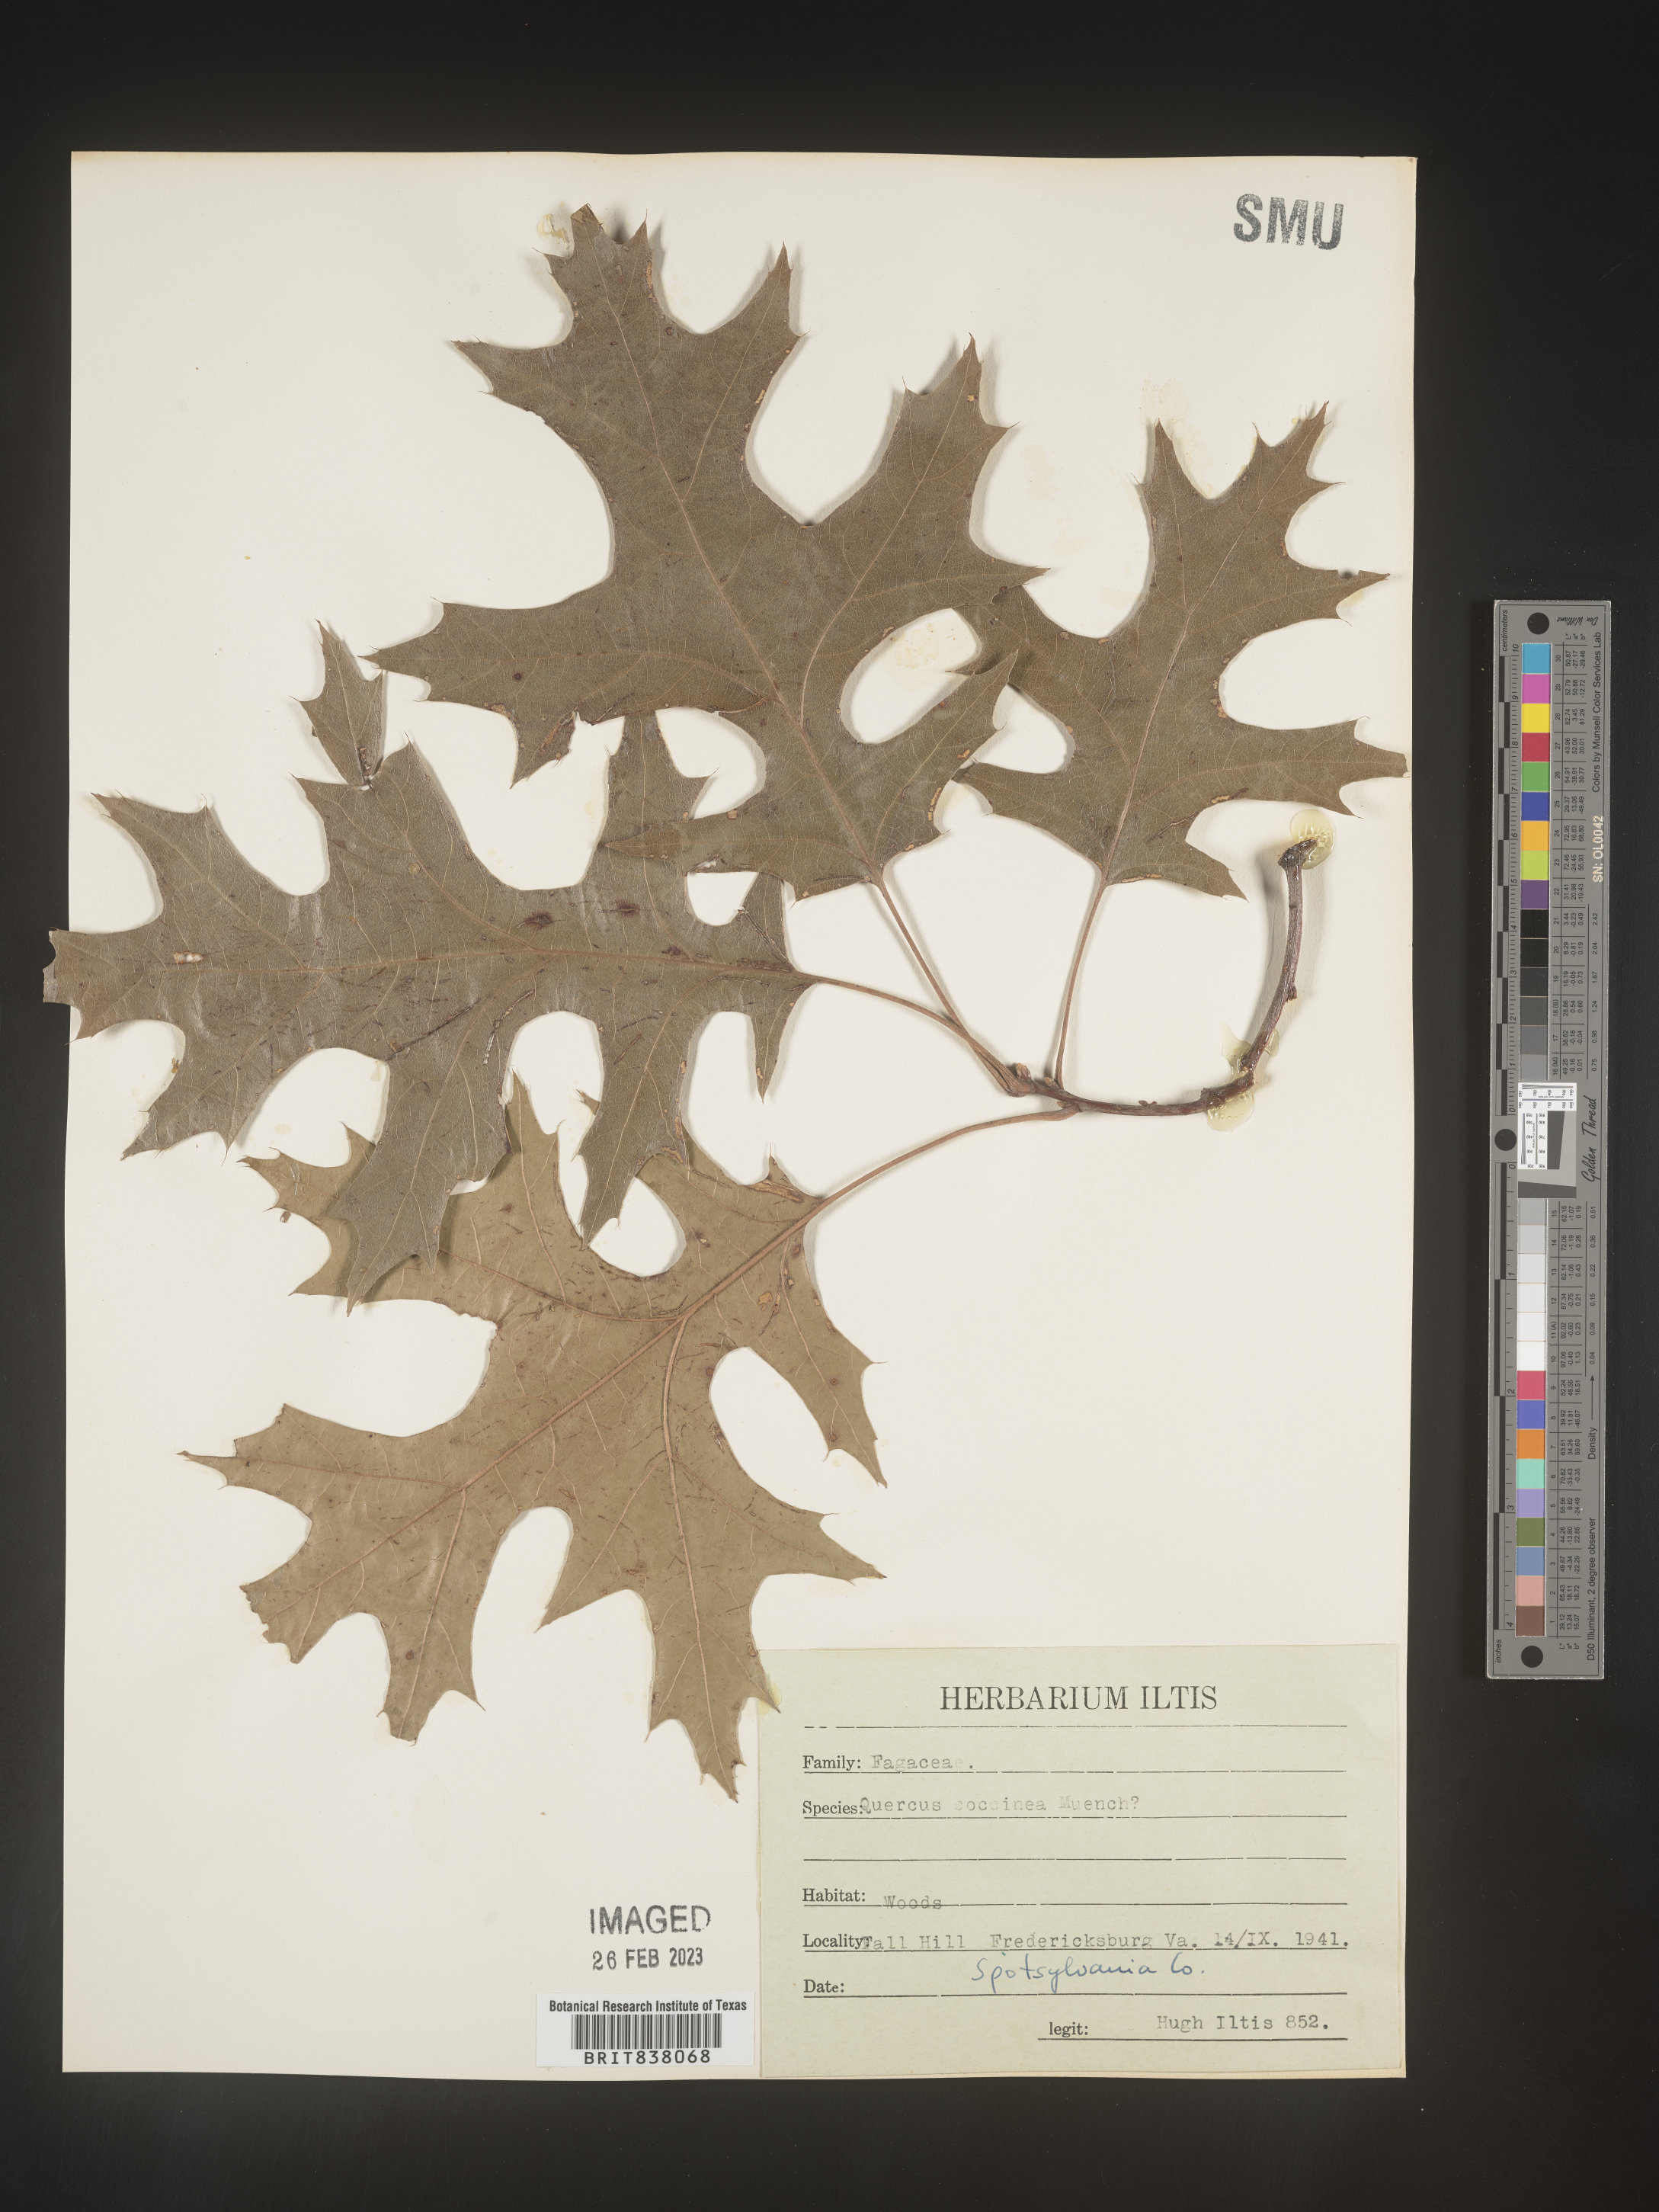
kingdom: Plantae
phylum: Tracheophyta
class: Magnoliopsida
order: Fagales
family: Fagaceae
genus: Quercus
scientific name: Quercus coccinea
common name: Scarlet oak
